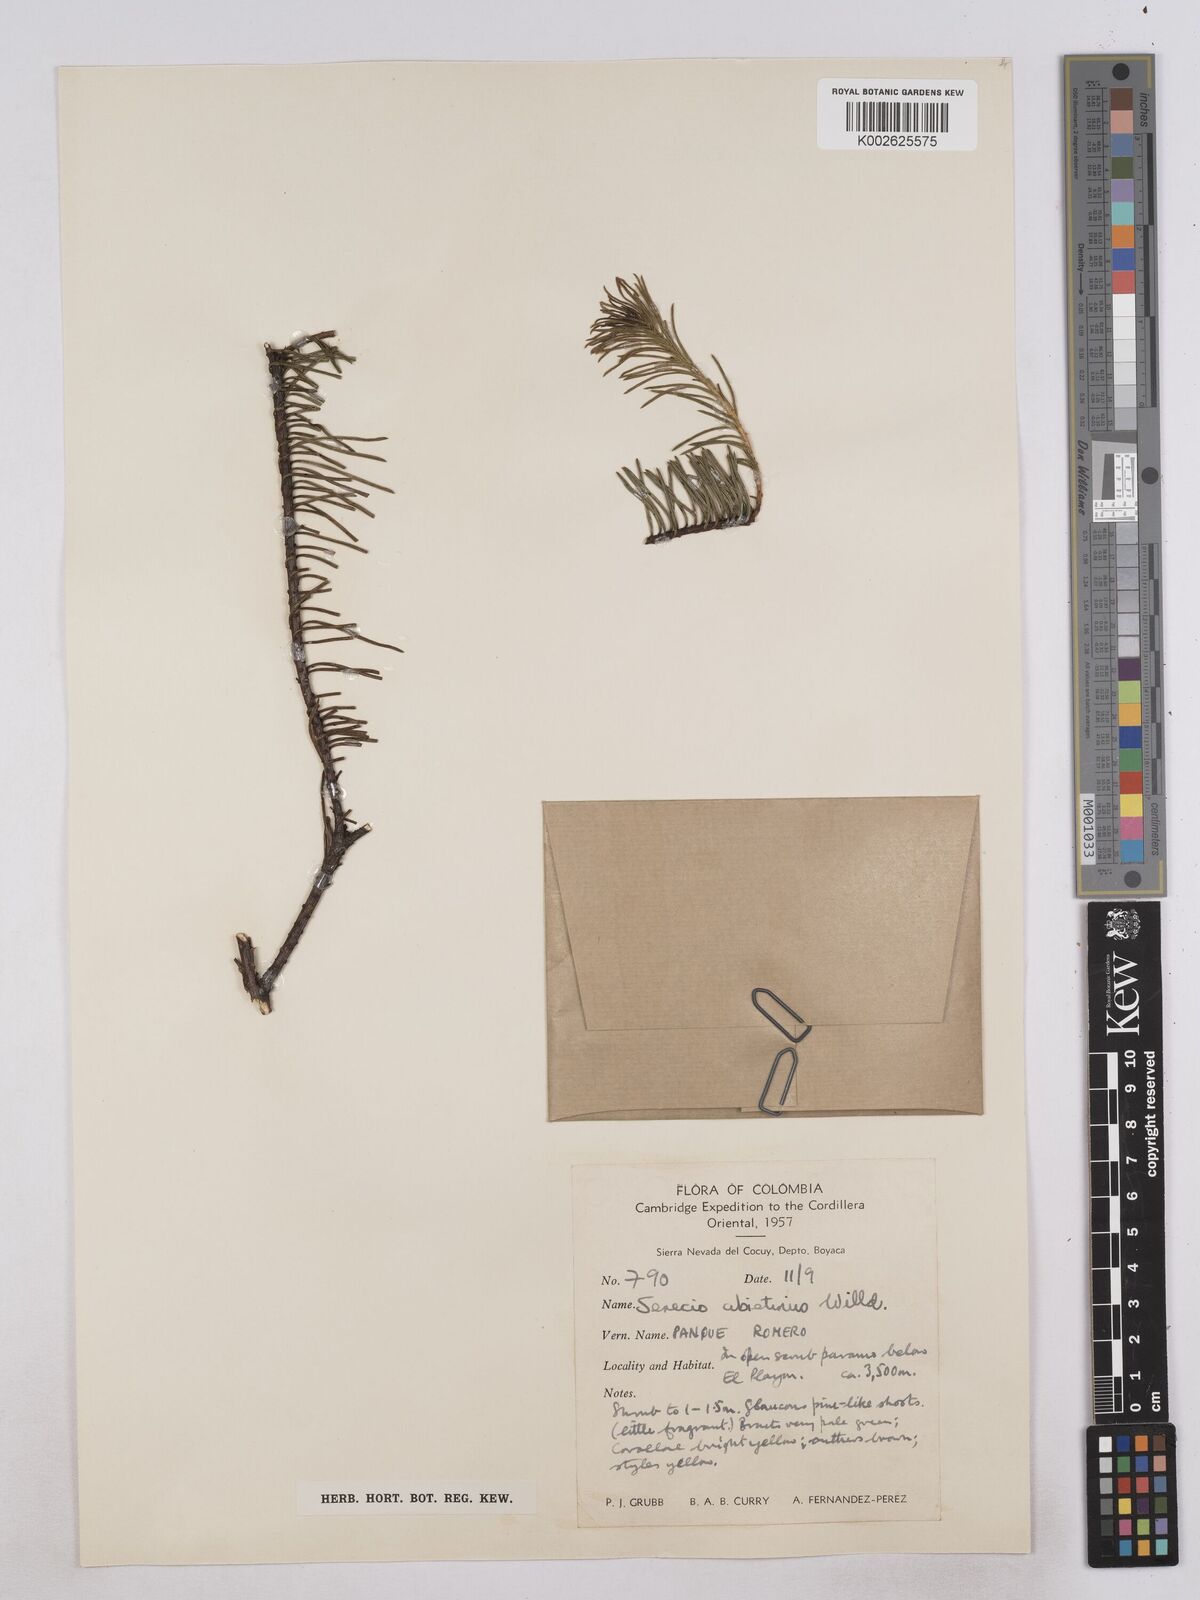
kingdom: Plantae
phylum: Tracheophyta
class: Magnoliopsida
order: Asterales
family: Asteraceae
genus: Monticalia
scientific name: Monticalia abietina
